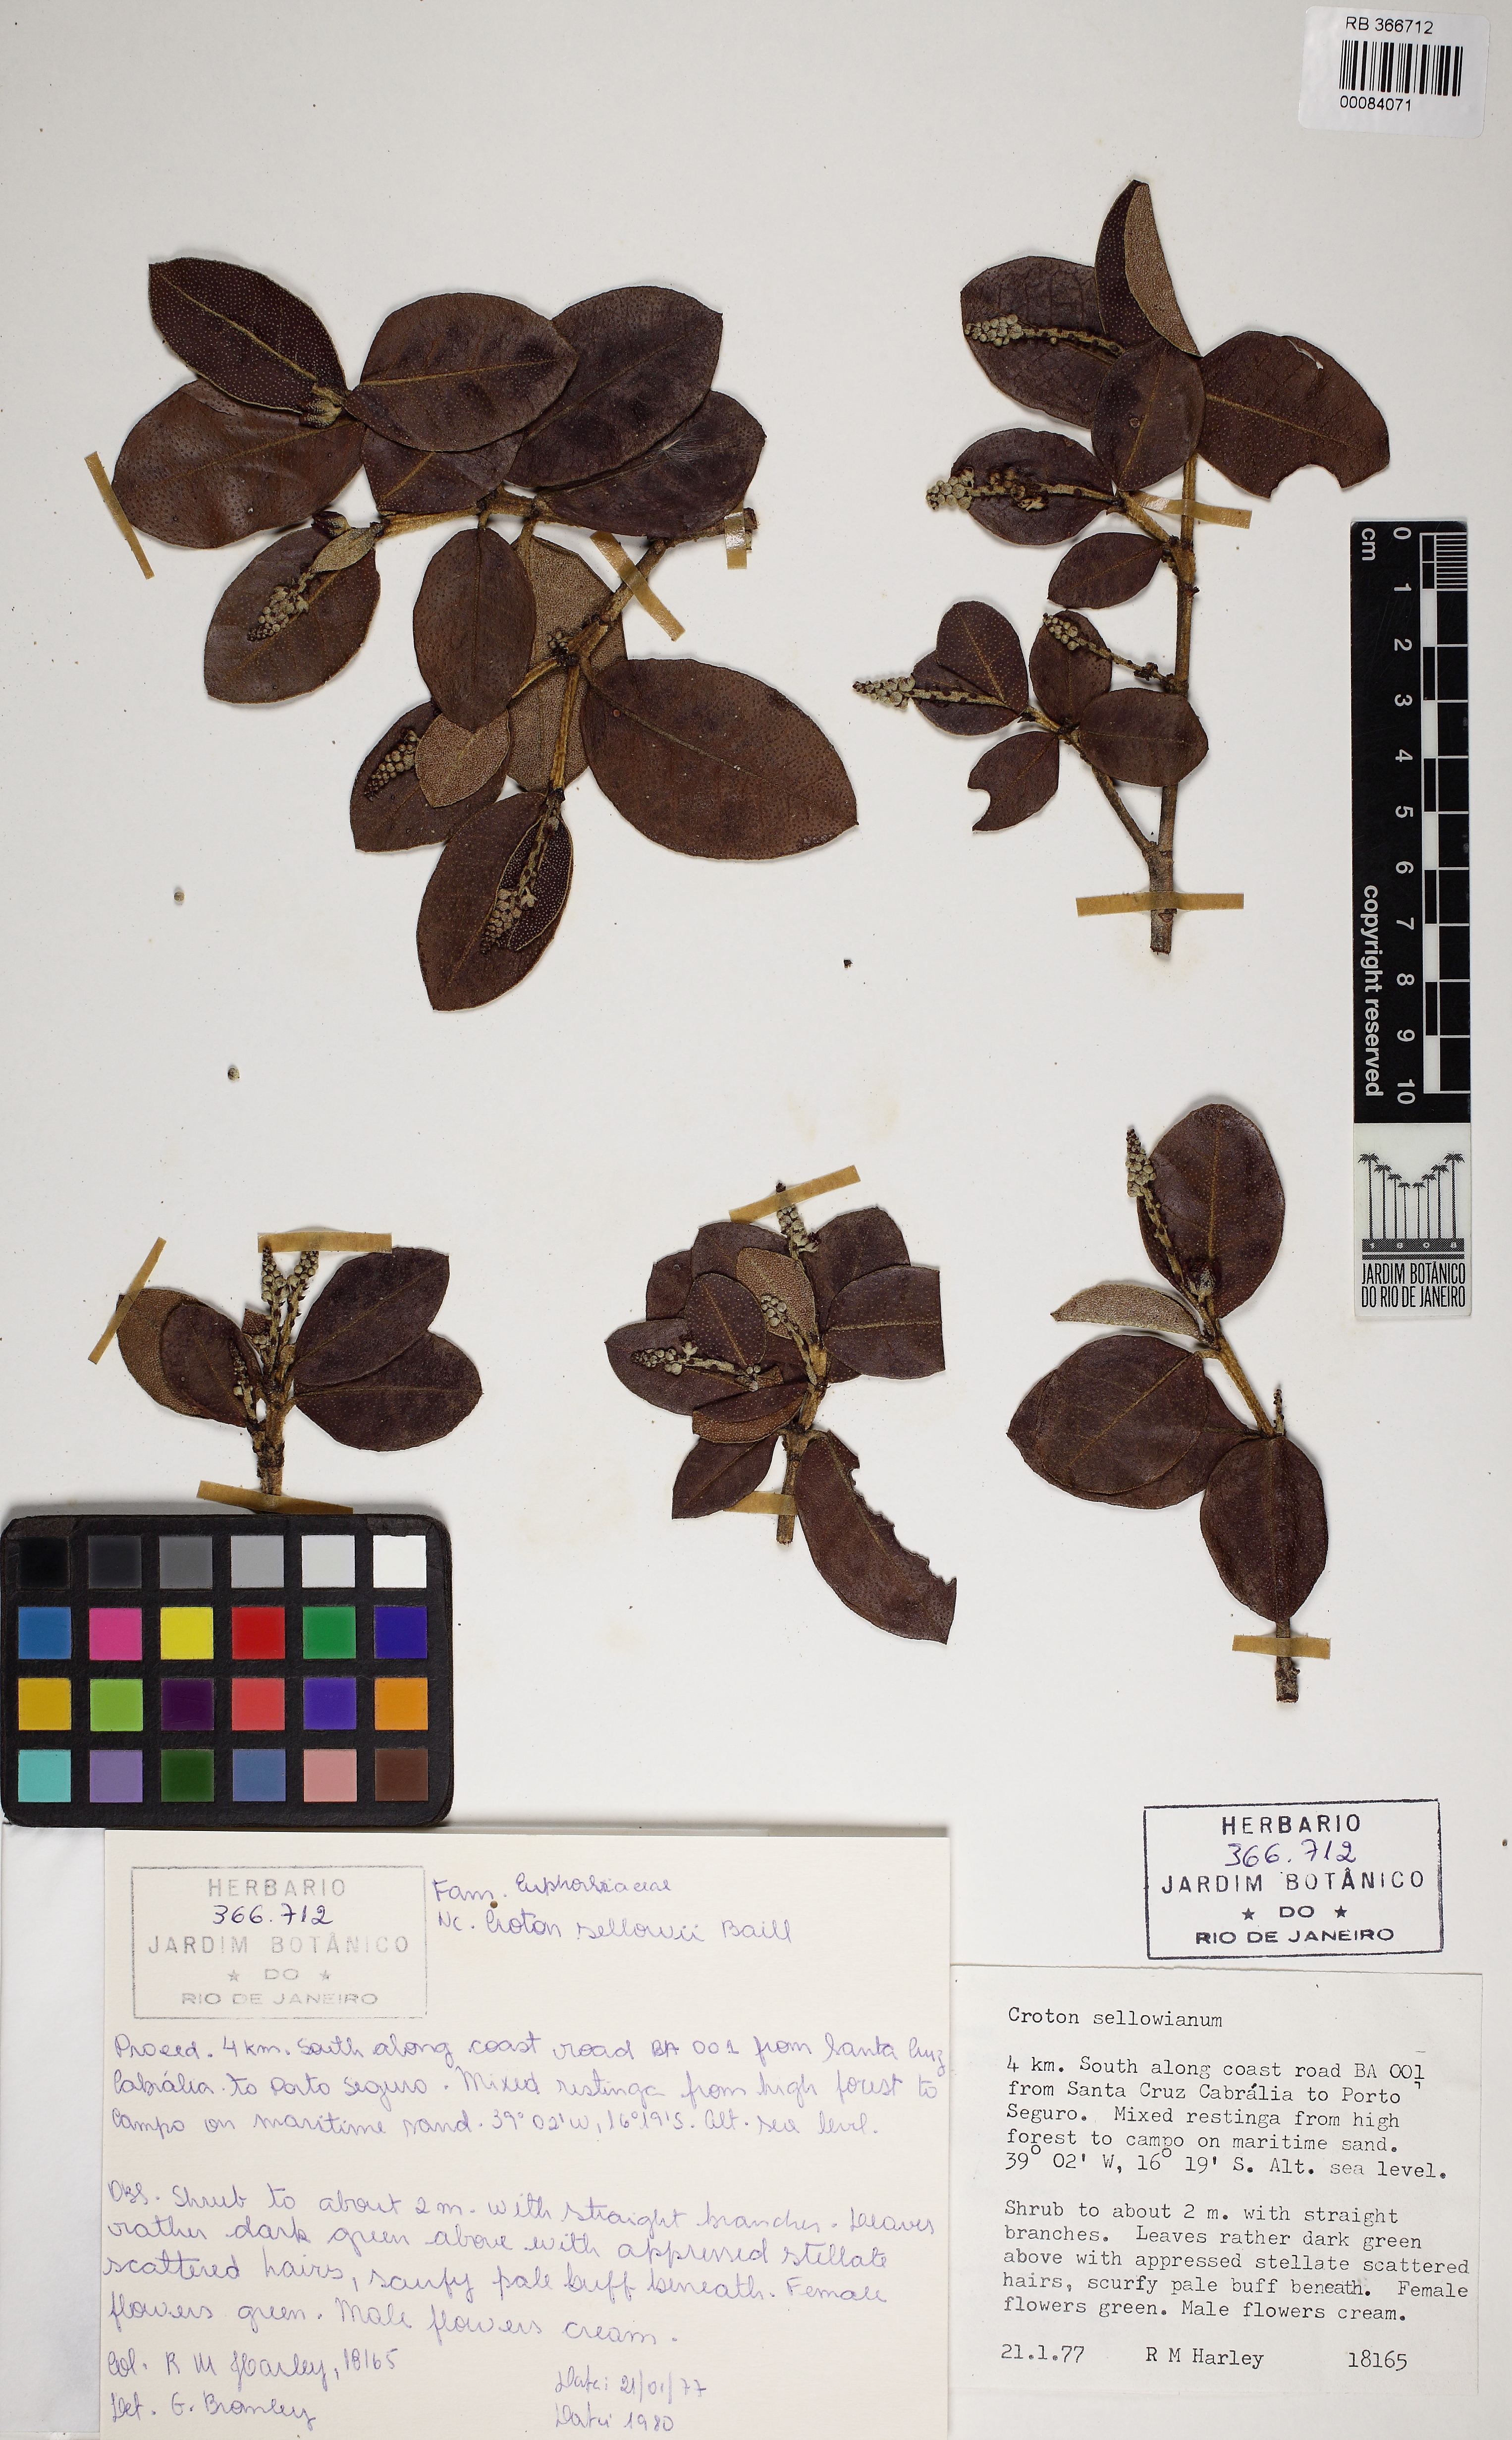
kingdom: Plantae
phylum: Tracheophyta
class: Magnoliopsida
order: Malpighiales
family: Euphorbiaceae
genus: Croton
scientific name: Croton sellowii
